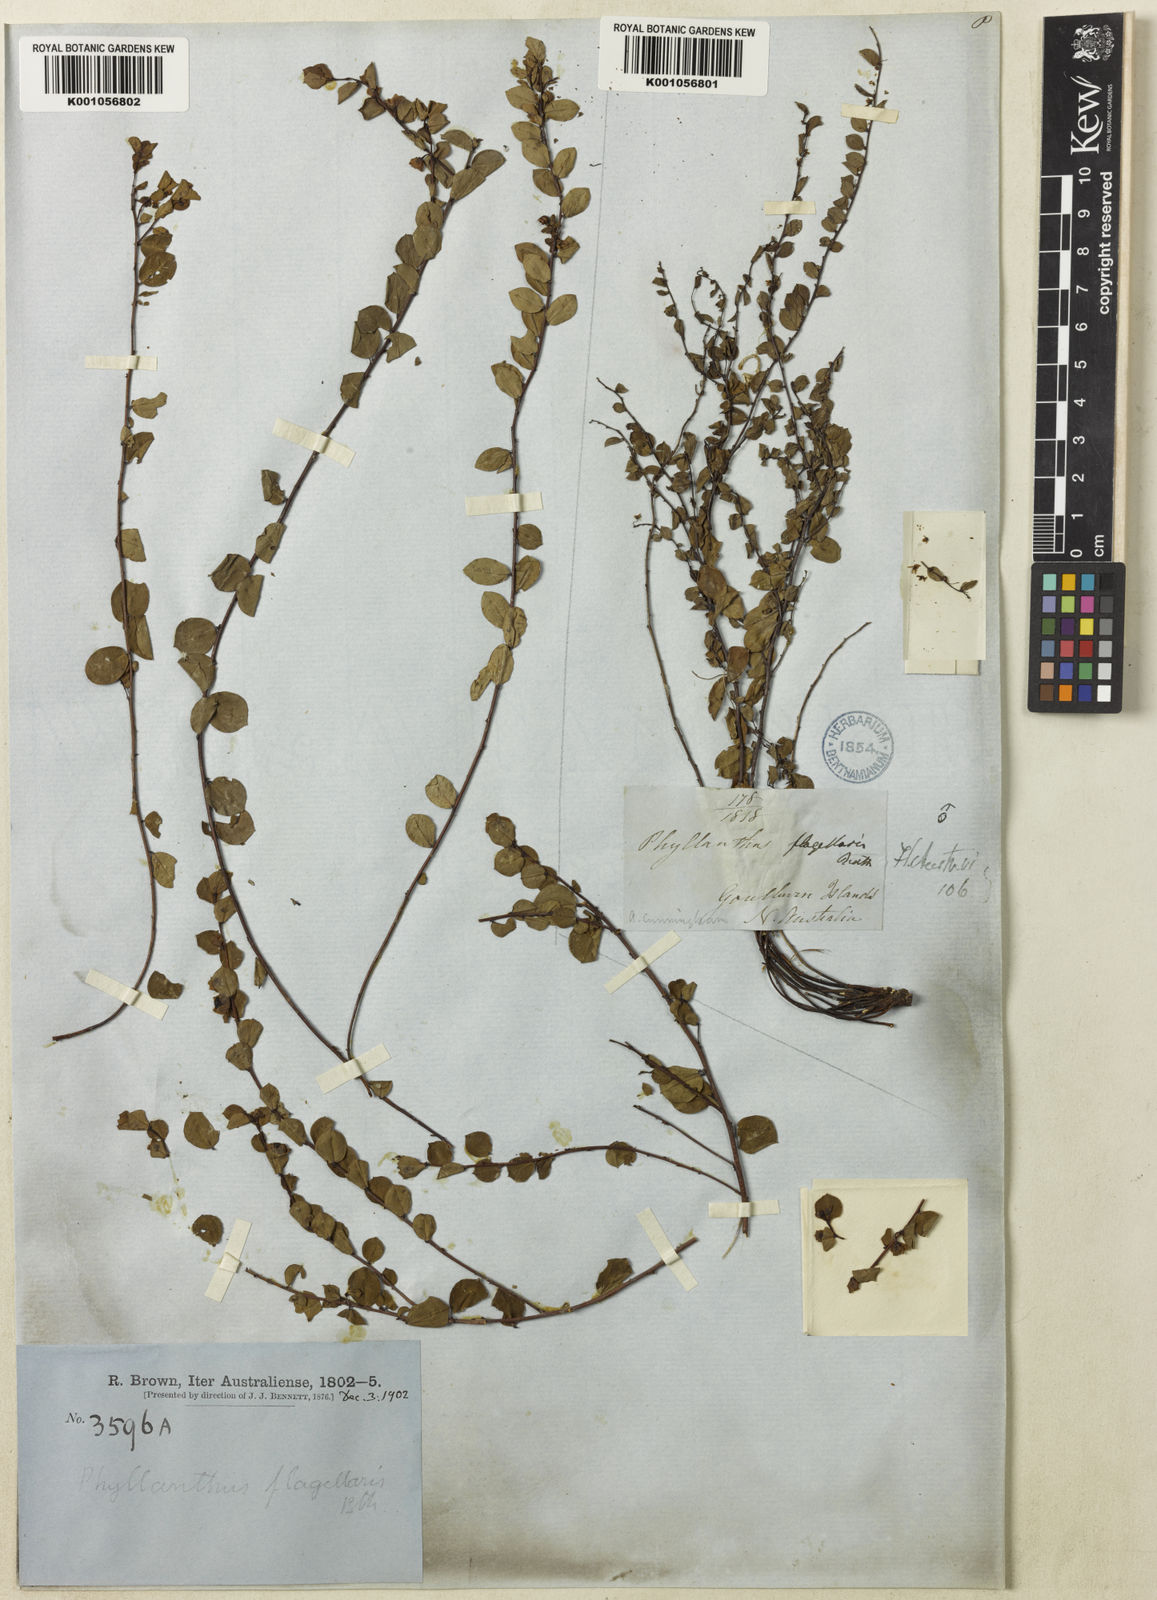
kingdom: Plantae
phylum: Tracheophyta
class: Magnoliopsida
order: Malpighiales
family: Phyllanthaceae
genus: Phyllanthus
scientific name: Phyllanthus flagellaris
